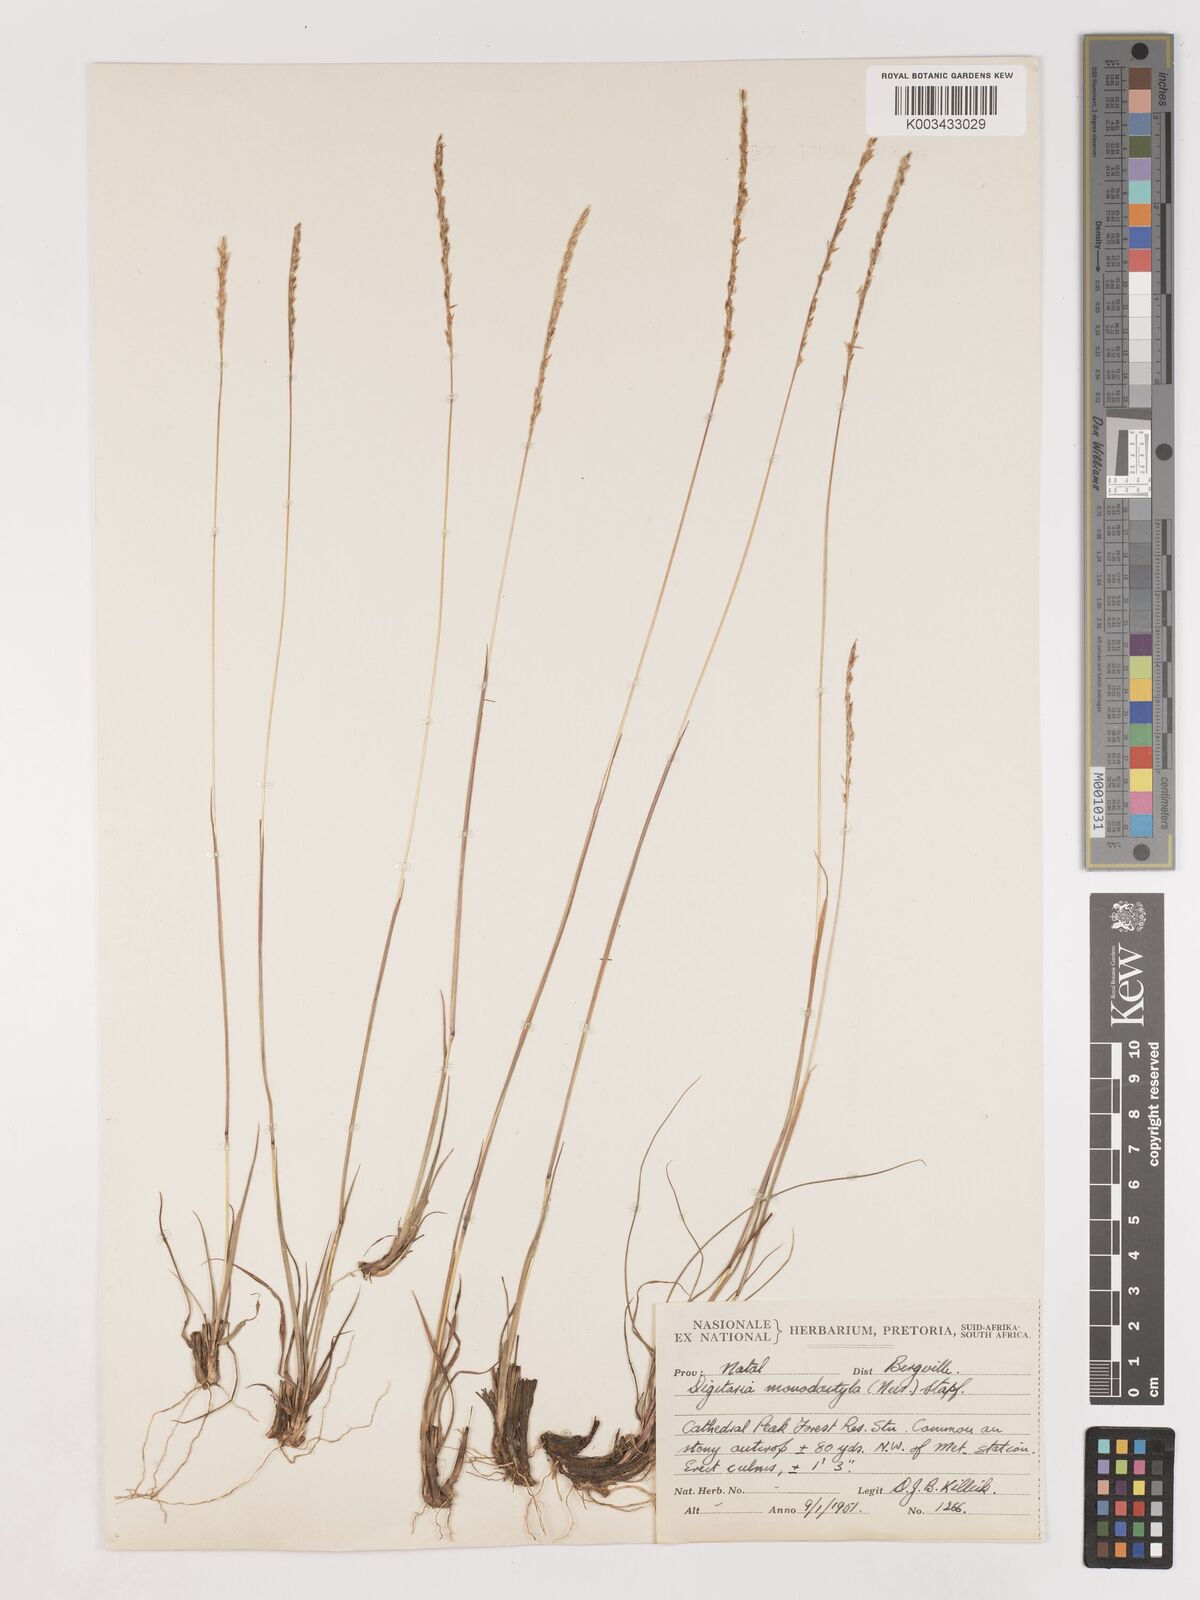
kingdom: Plantae
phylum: Tracheophyta
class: Liliopsida
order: Poales
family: Poaceae
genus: Digitaria
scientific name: Digitaria monodactyla
